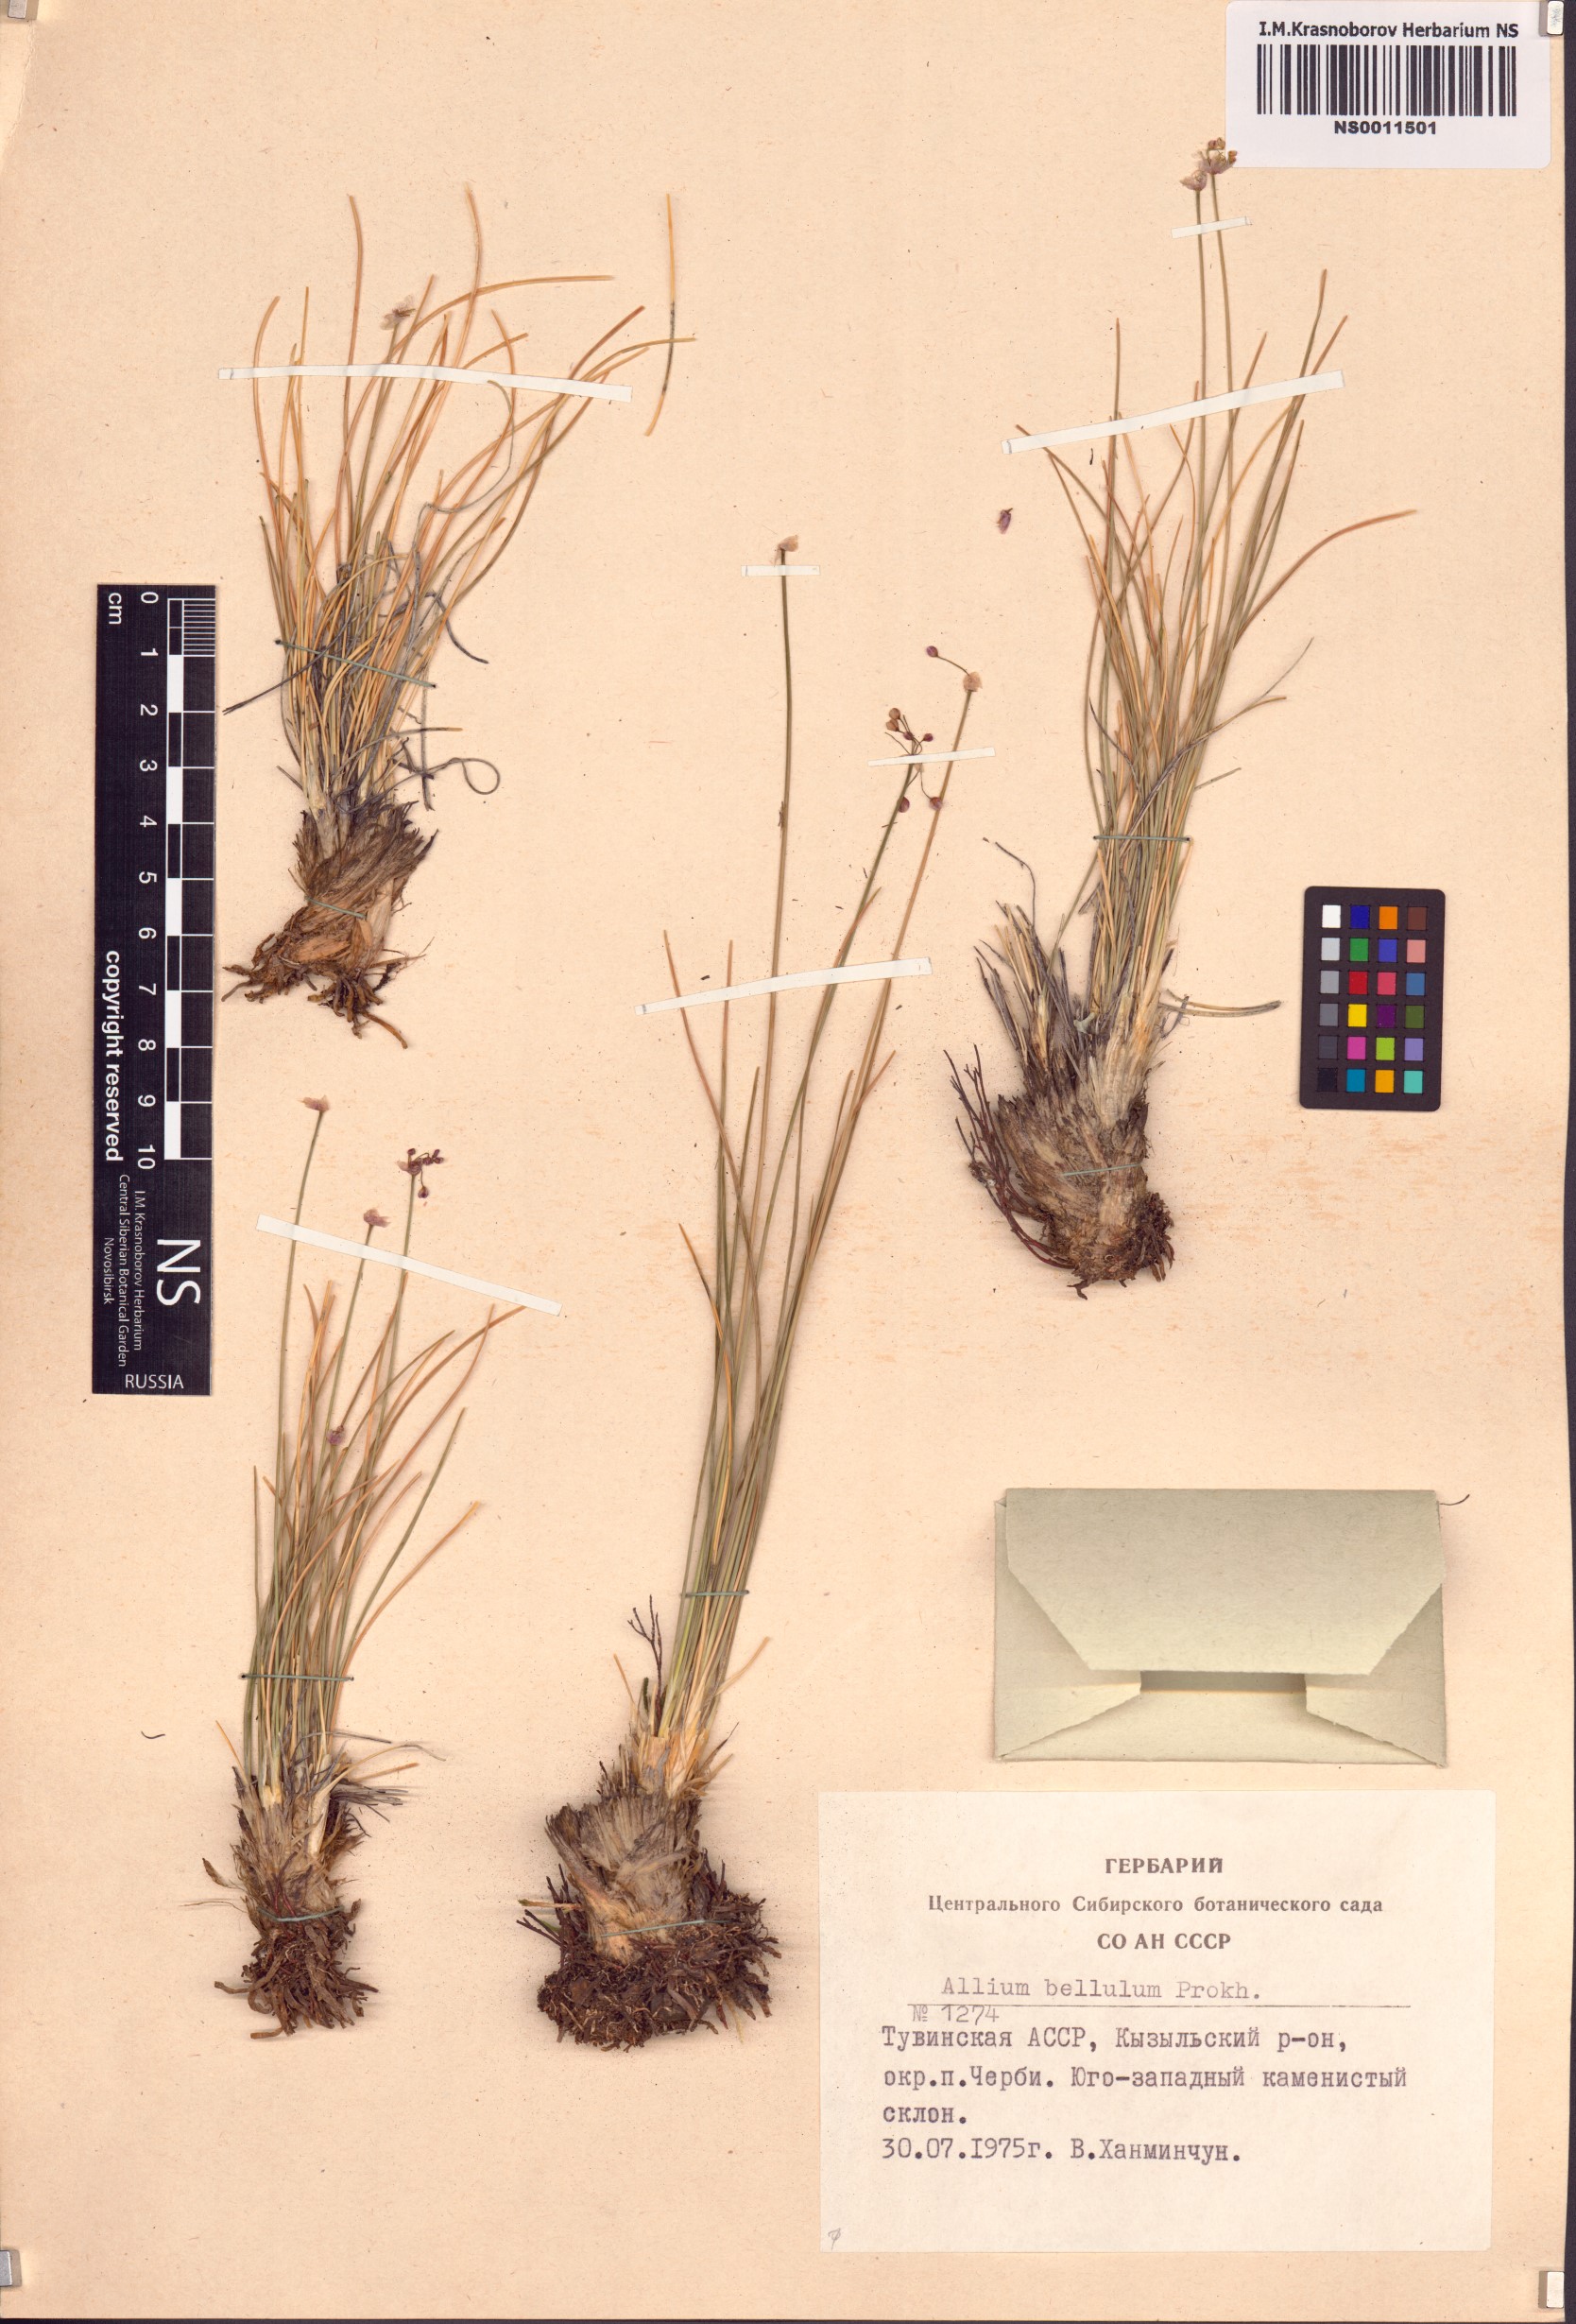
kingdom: Plantae
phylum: Tracheophyta
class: Liliopsida
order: Asparagales
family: Amaryllidaceae
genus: Allium
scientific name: Allium bellulum
